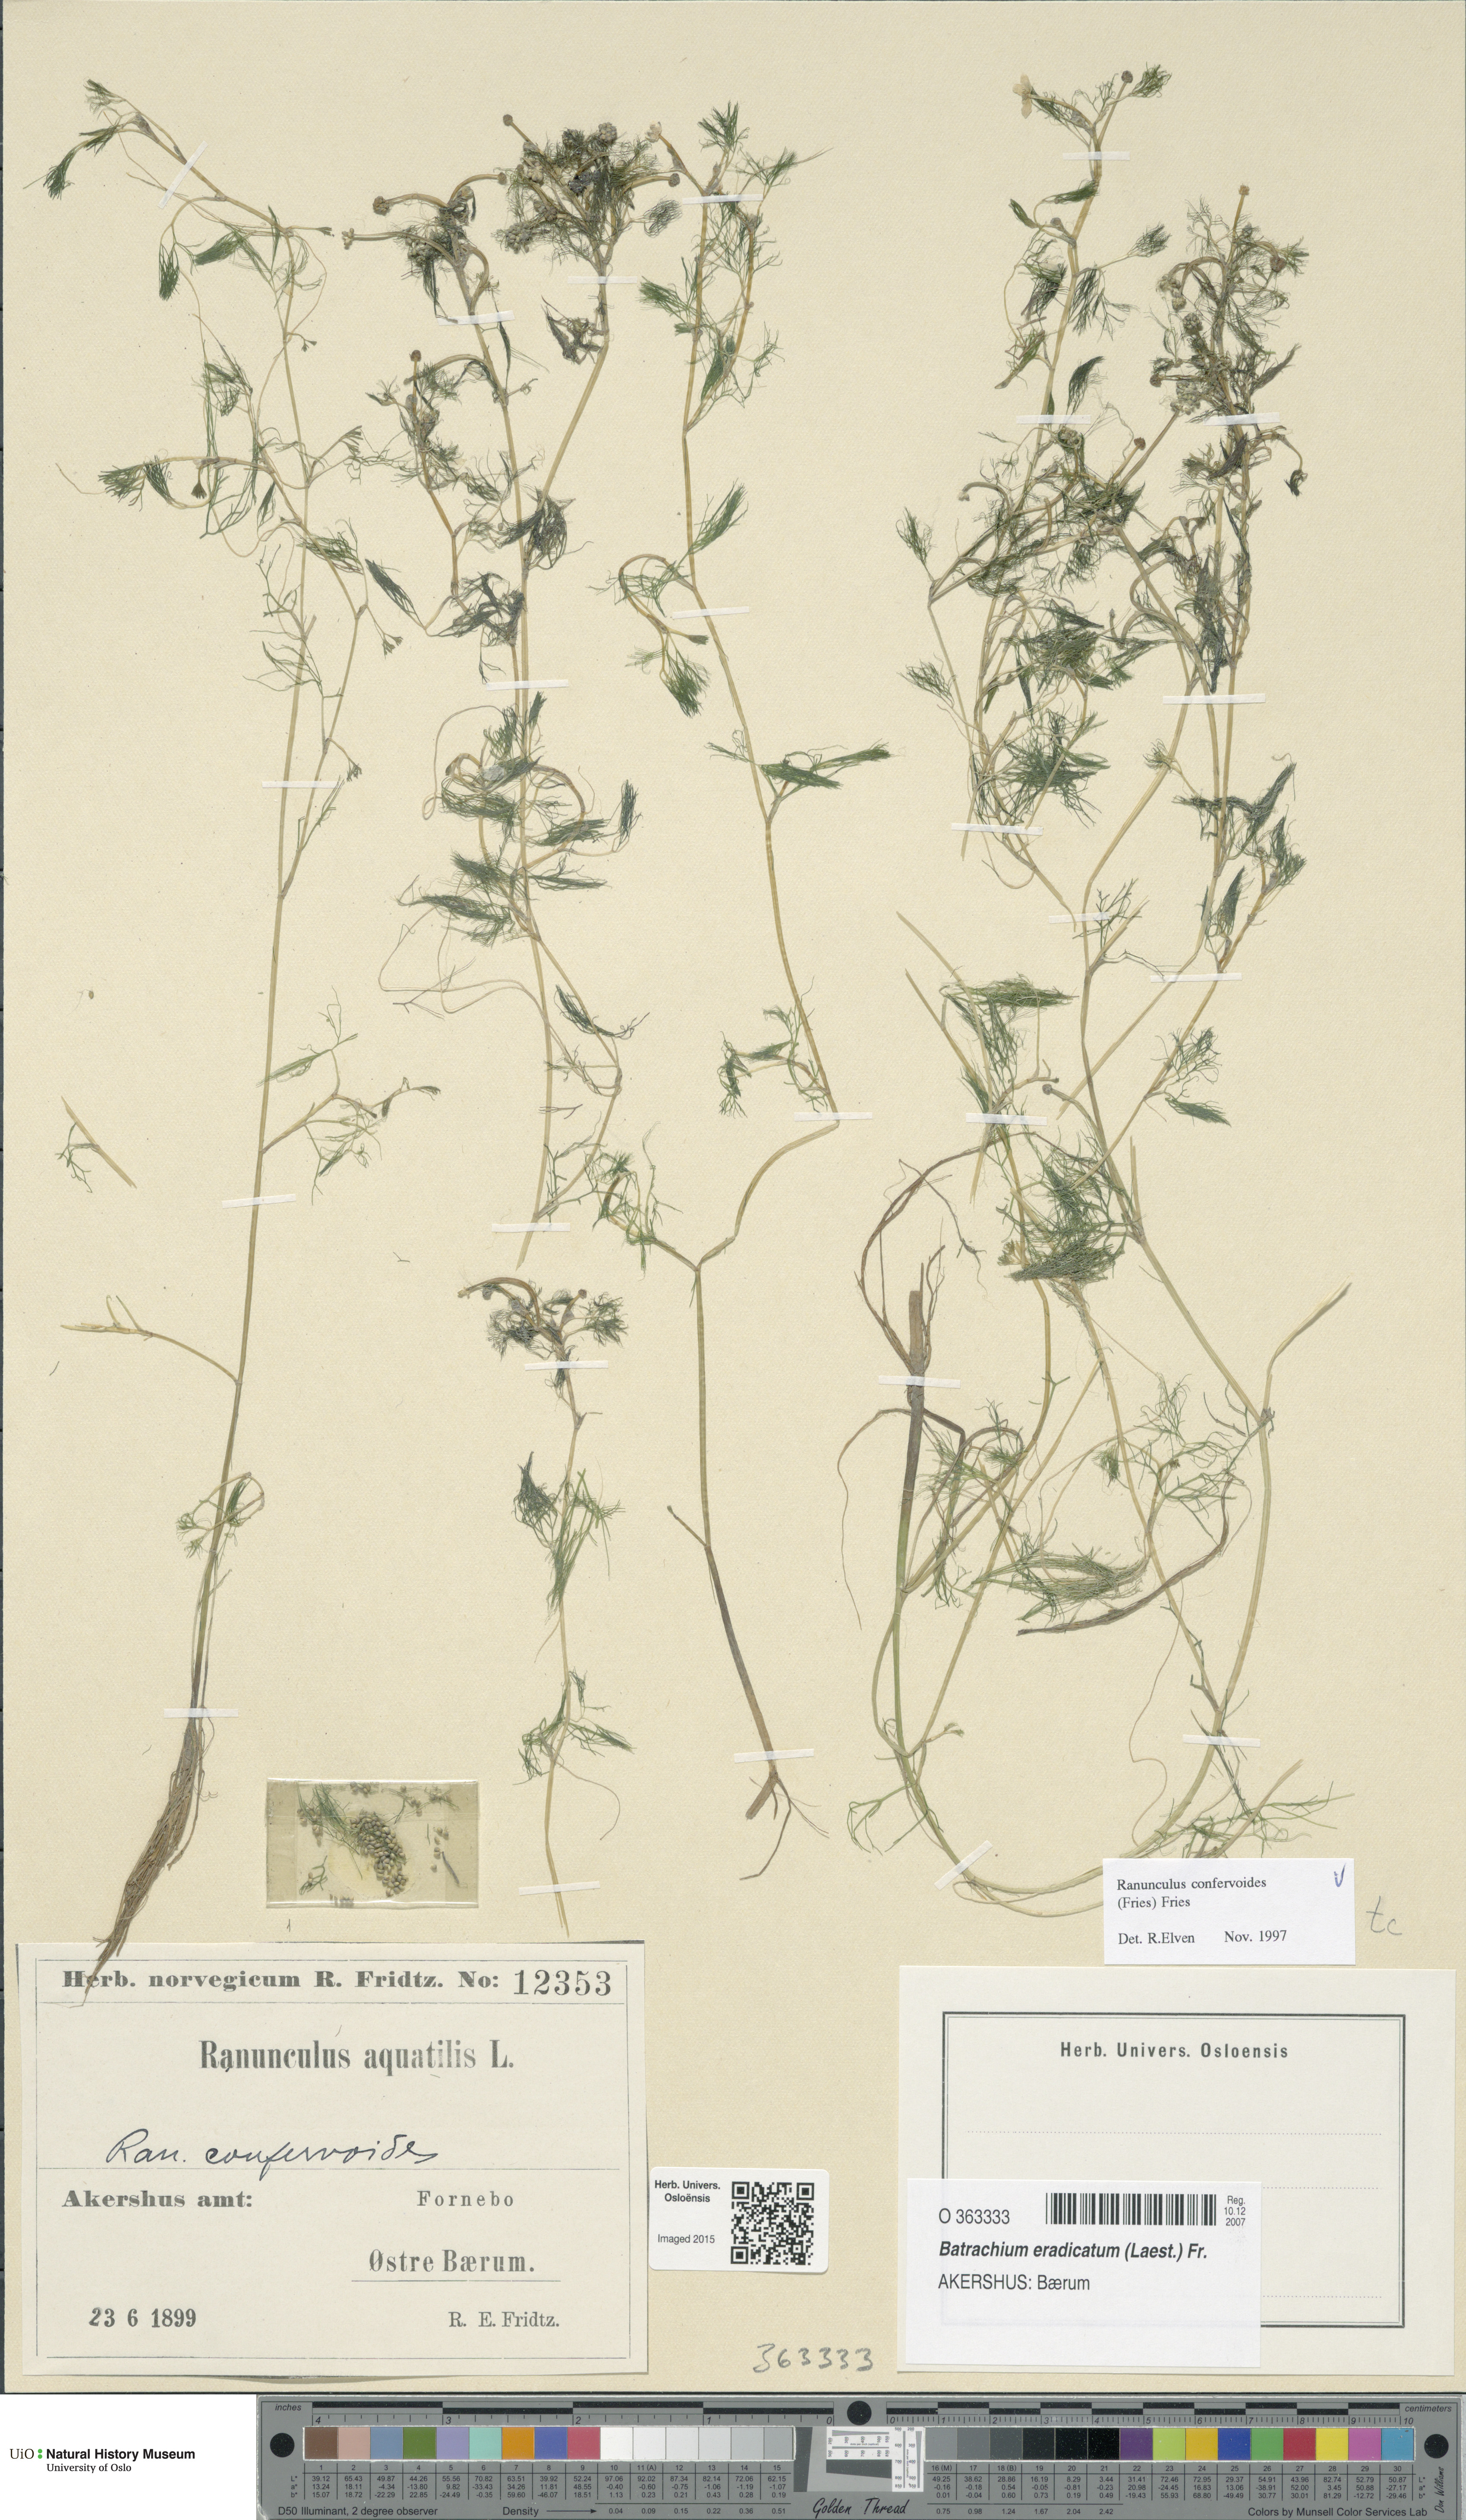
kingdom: Plantae
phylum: Tracheophyta
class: Magnoliopsida
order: Ranunculales
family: Ranunculaceae
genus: Ranunculus
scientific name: Ranunculus confervoides
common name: Delicate buttercup
